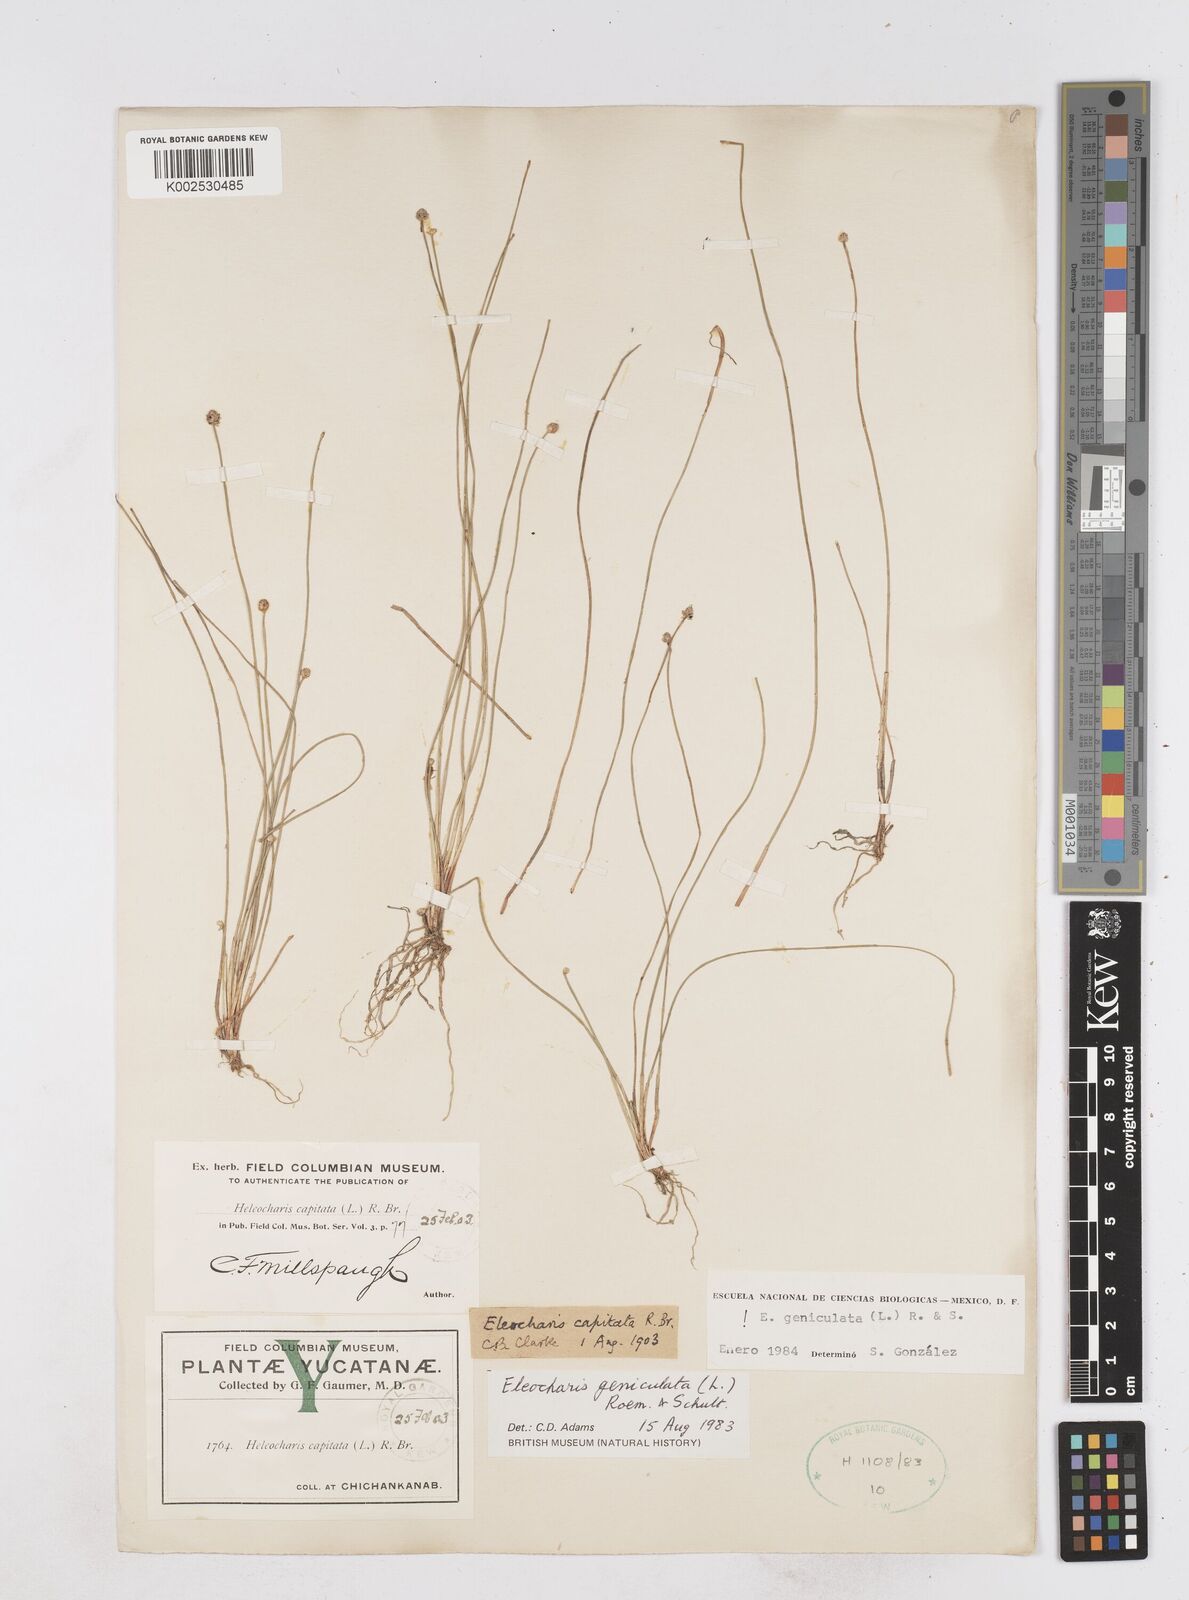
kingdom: Plantae
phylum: Tracheophyta
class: Liliopsida
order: Poales
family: Cyperaceae
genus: Eleocharis
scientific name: Eleocharis geniculata
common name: Canada spikesedge
